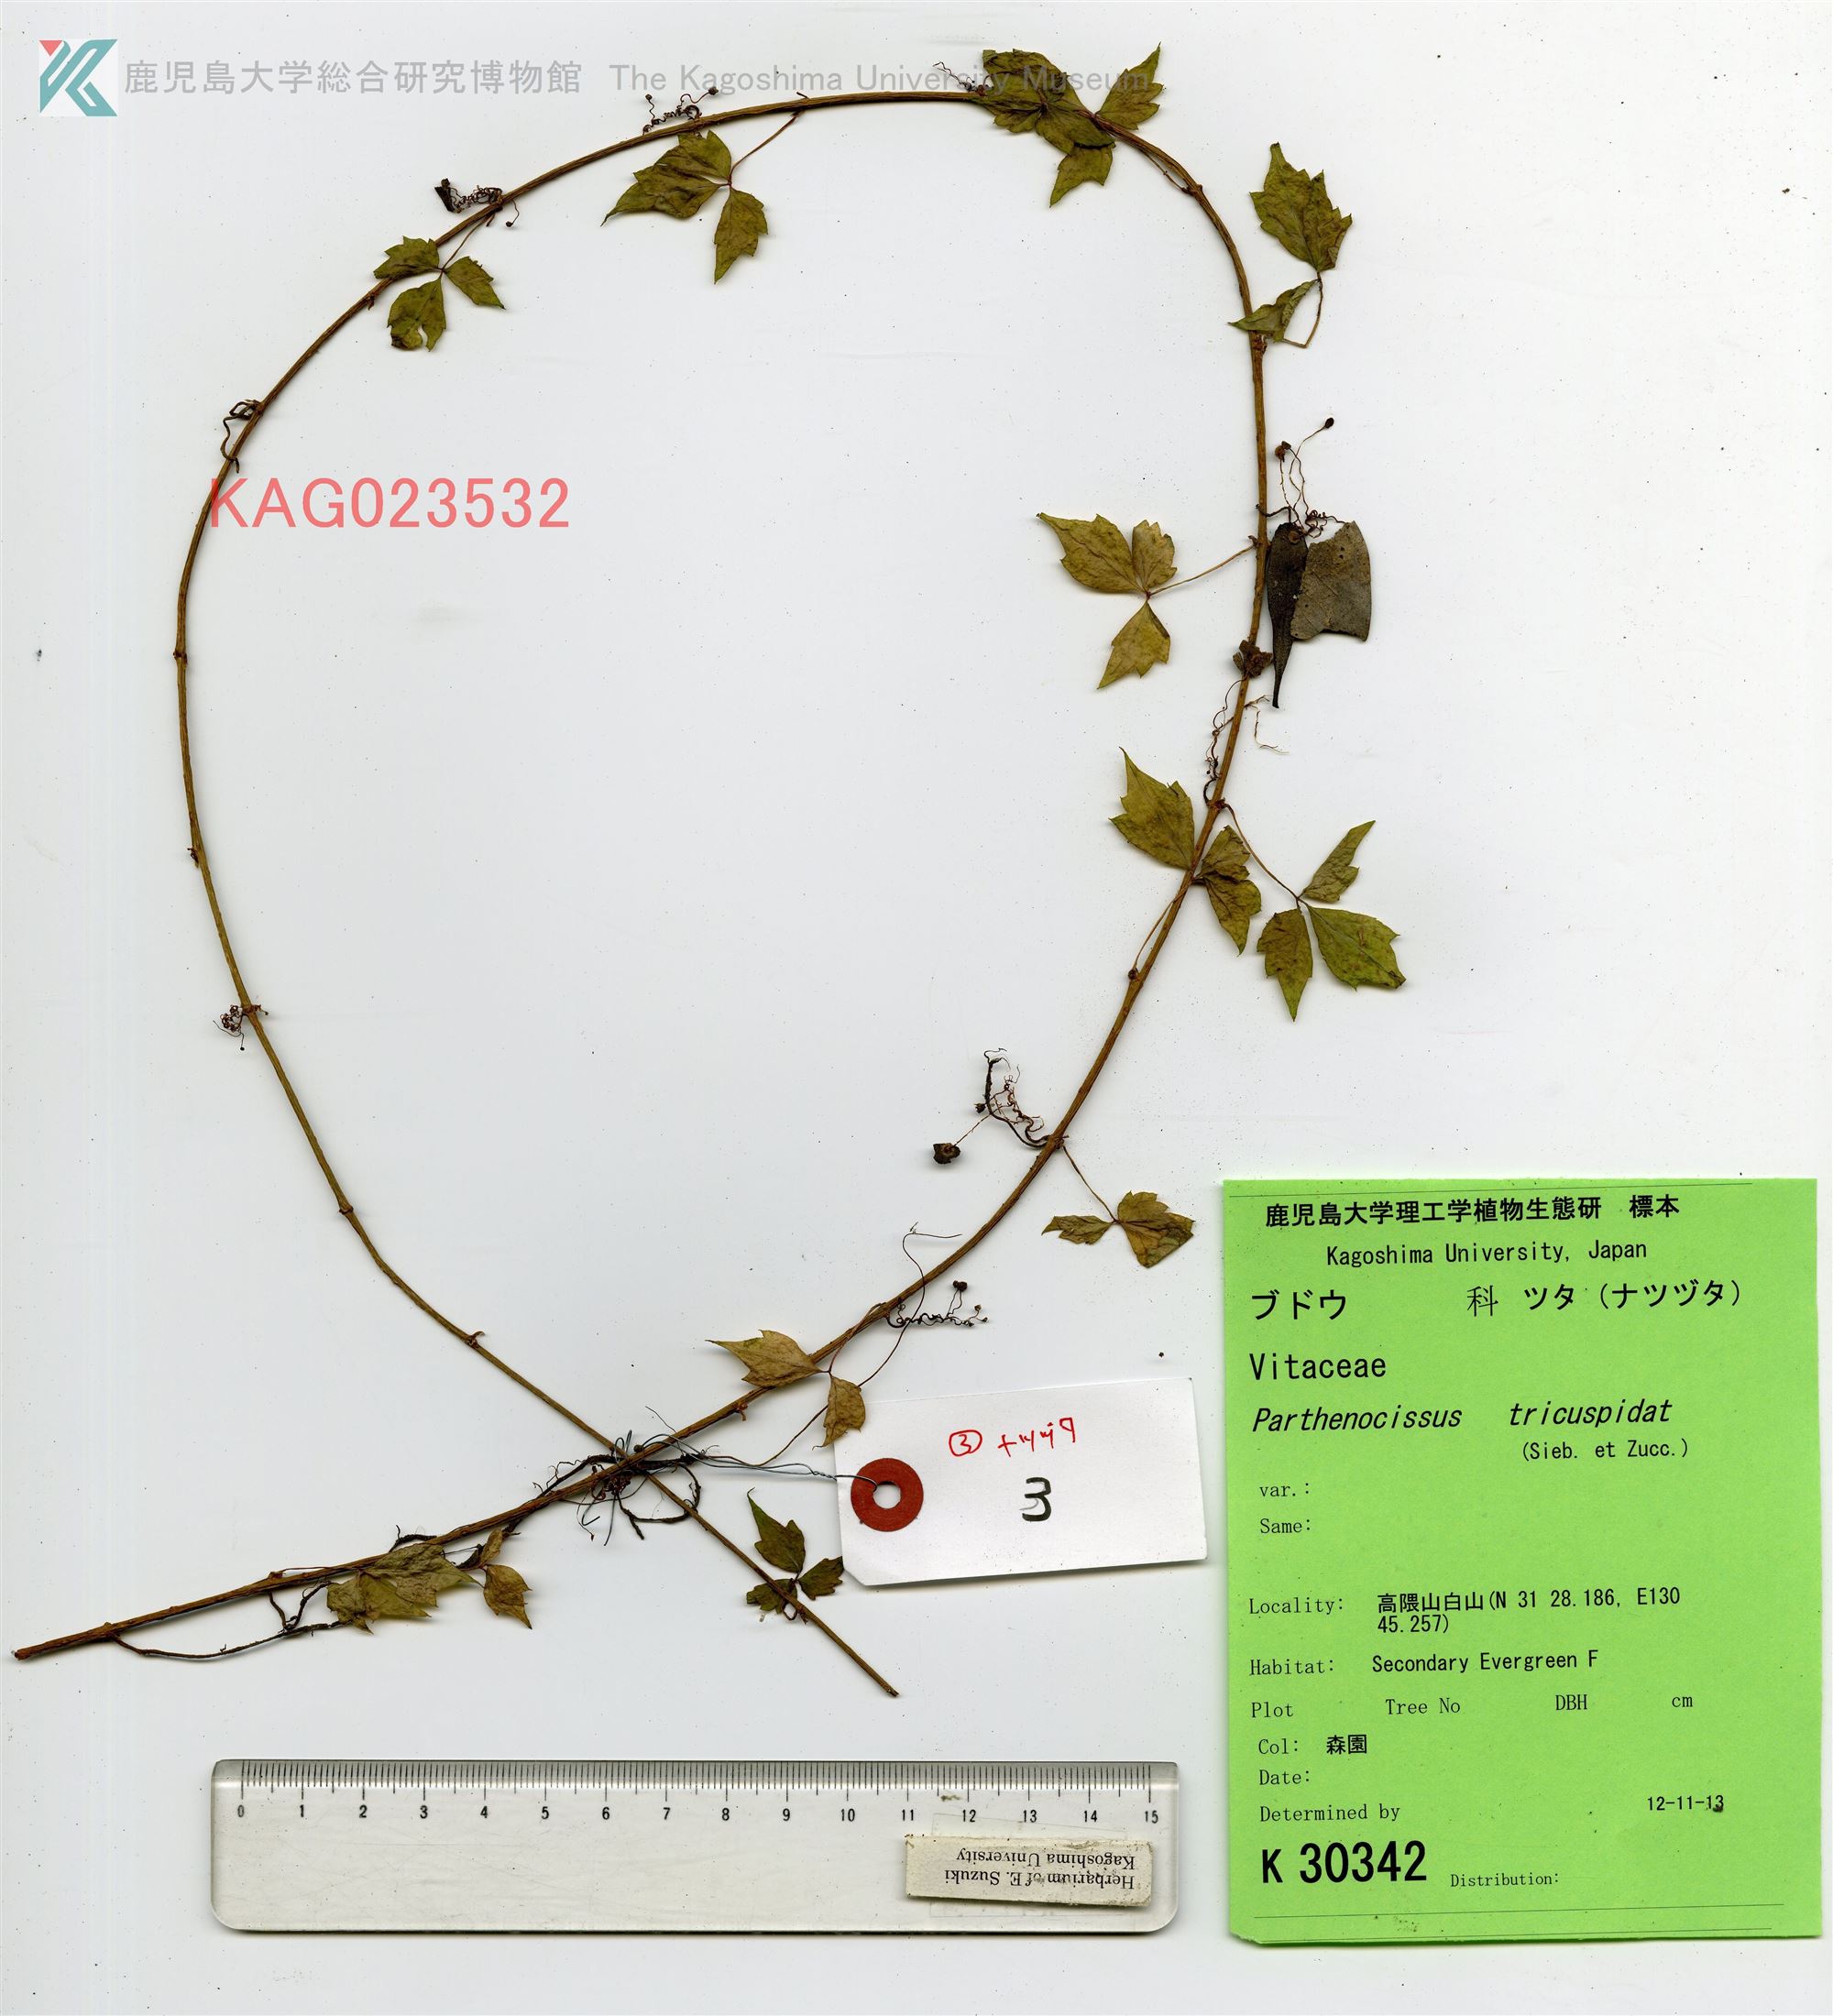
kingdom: Plantae
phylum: Tracheophyta
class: Magnoliopsida
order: Vitales
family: Vitaceae
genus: Parthenocissus
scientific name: Parthenocissus tricuspidata
